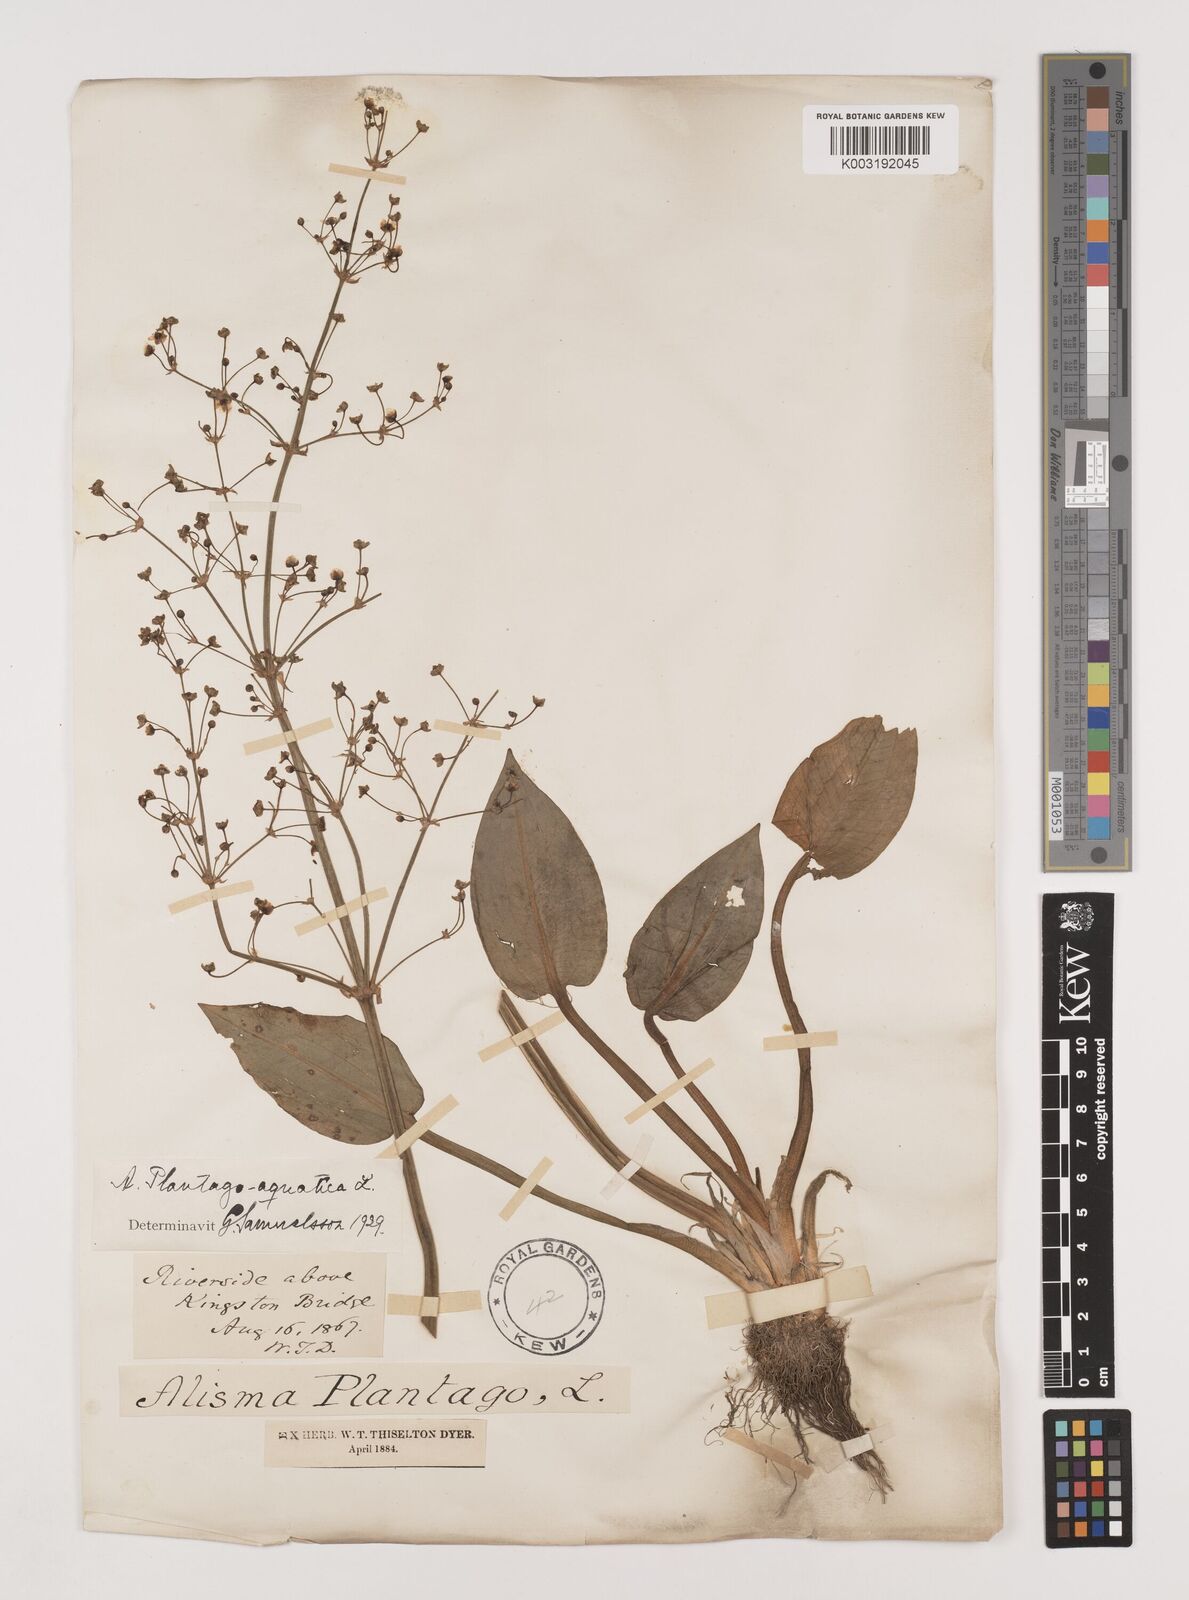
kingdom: Plantae
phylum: Tracheophyta
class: Liliopsida
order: Alismatales
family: Alismataceae
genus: Alisma
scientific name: Alisma plantago-aquatica
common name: Water-plantain
